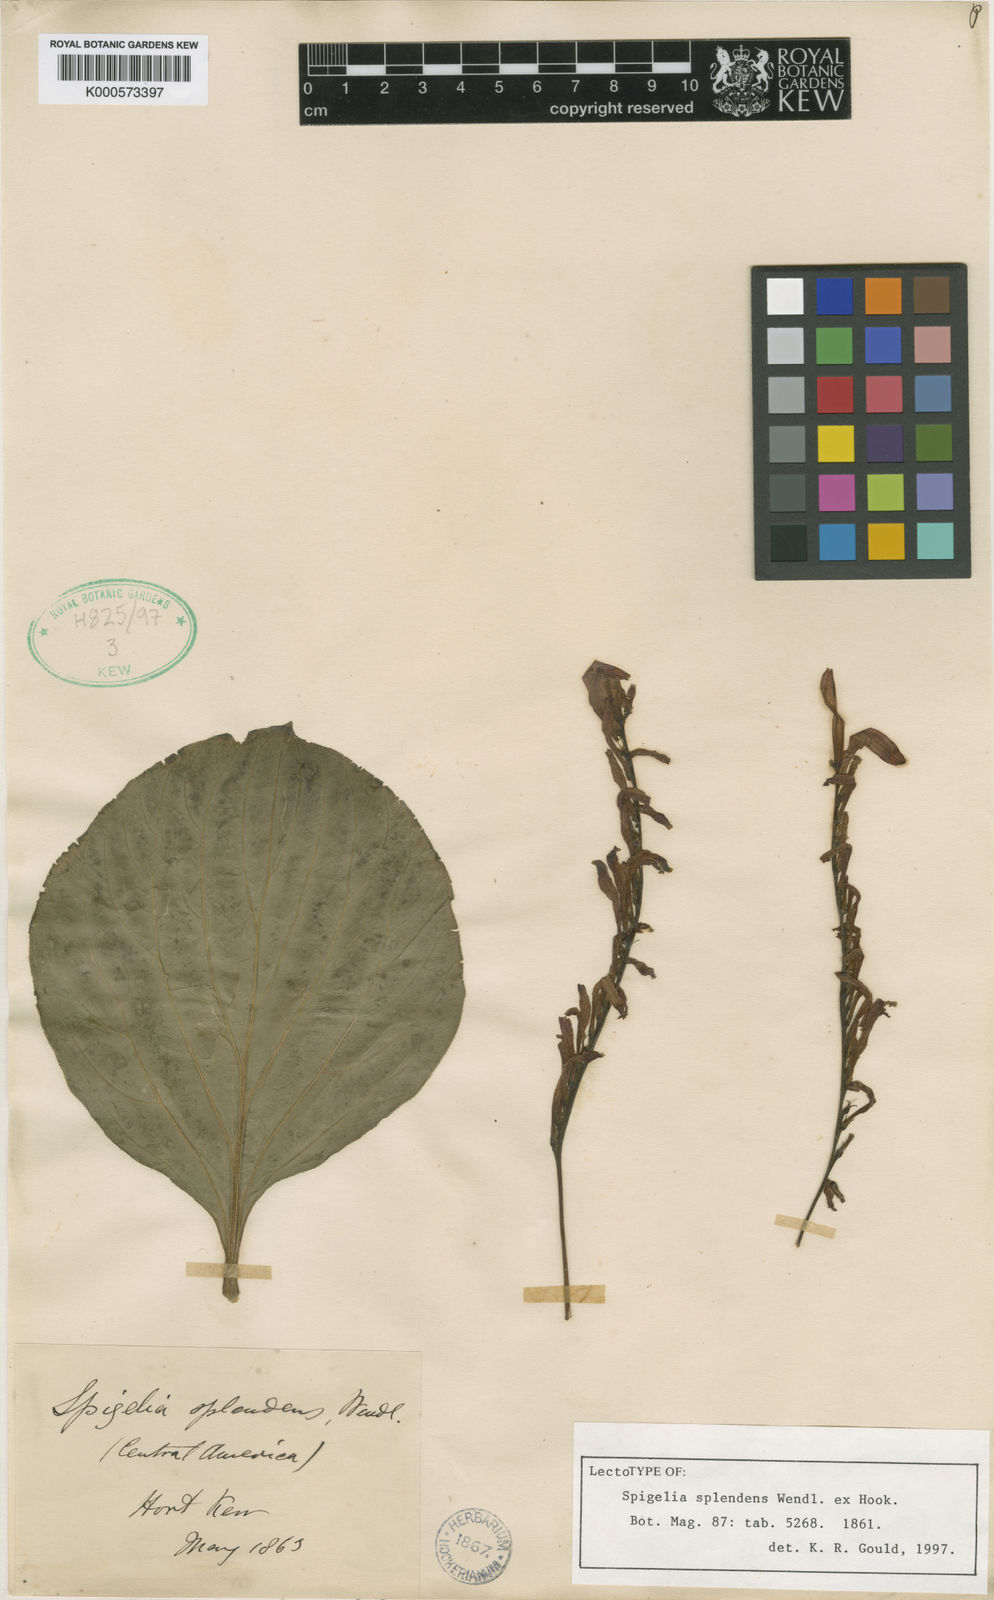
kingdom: Plantae
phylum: Tracheophyta
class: Magnoliopsida
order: Gentianales
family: Loganiaceae
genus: Spigelia
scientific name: Spigelia splendens
